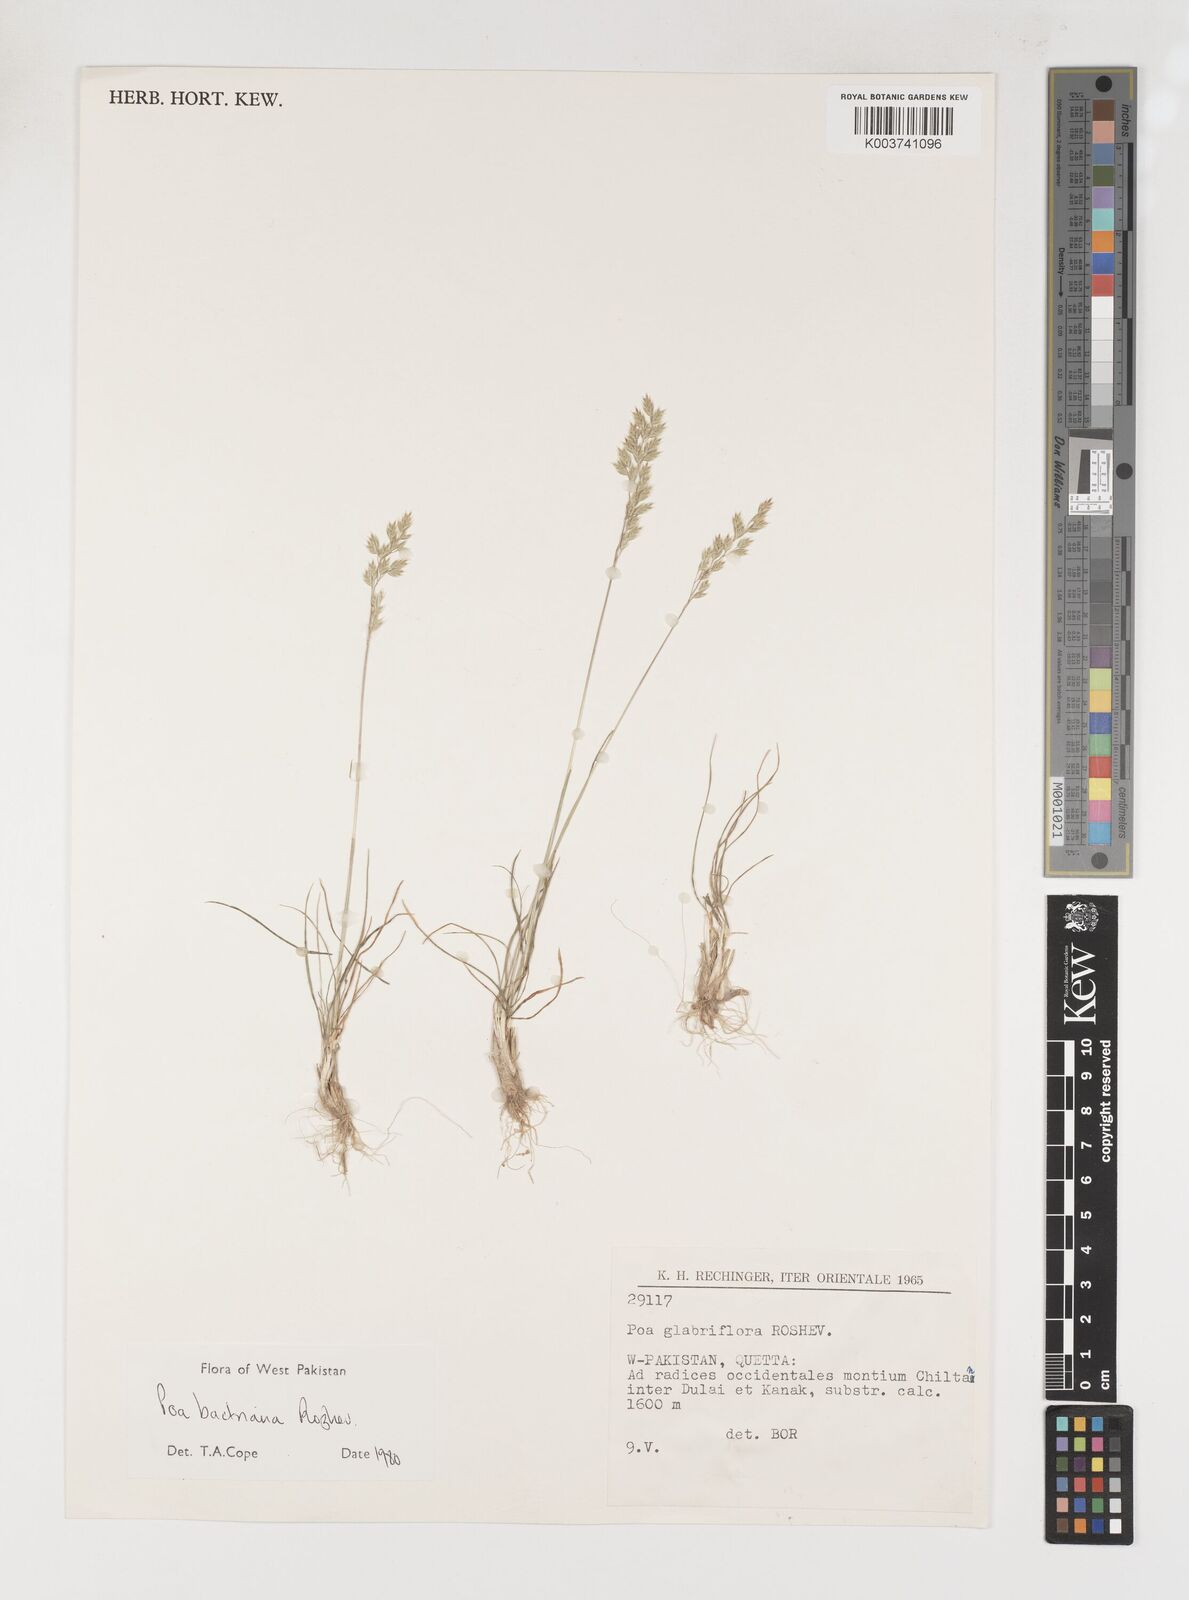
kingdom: Plantae
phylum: Tracheophyta
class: Liliopsida
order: Poales
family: Poaceae
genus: Poa
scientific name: Poa bactriana
